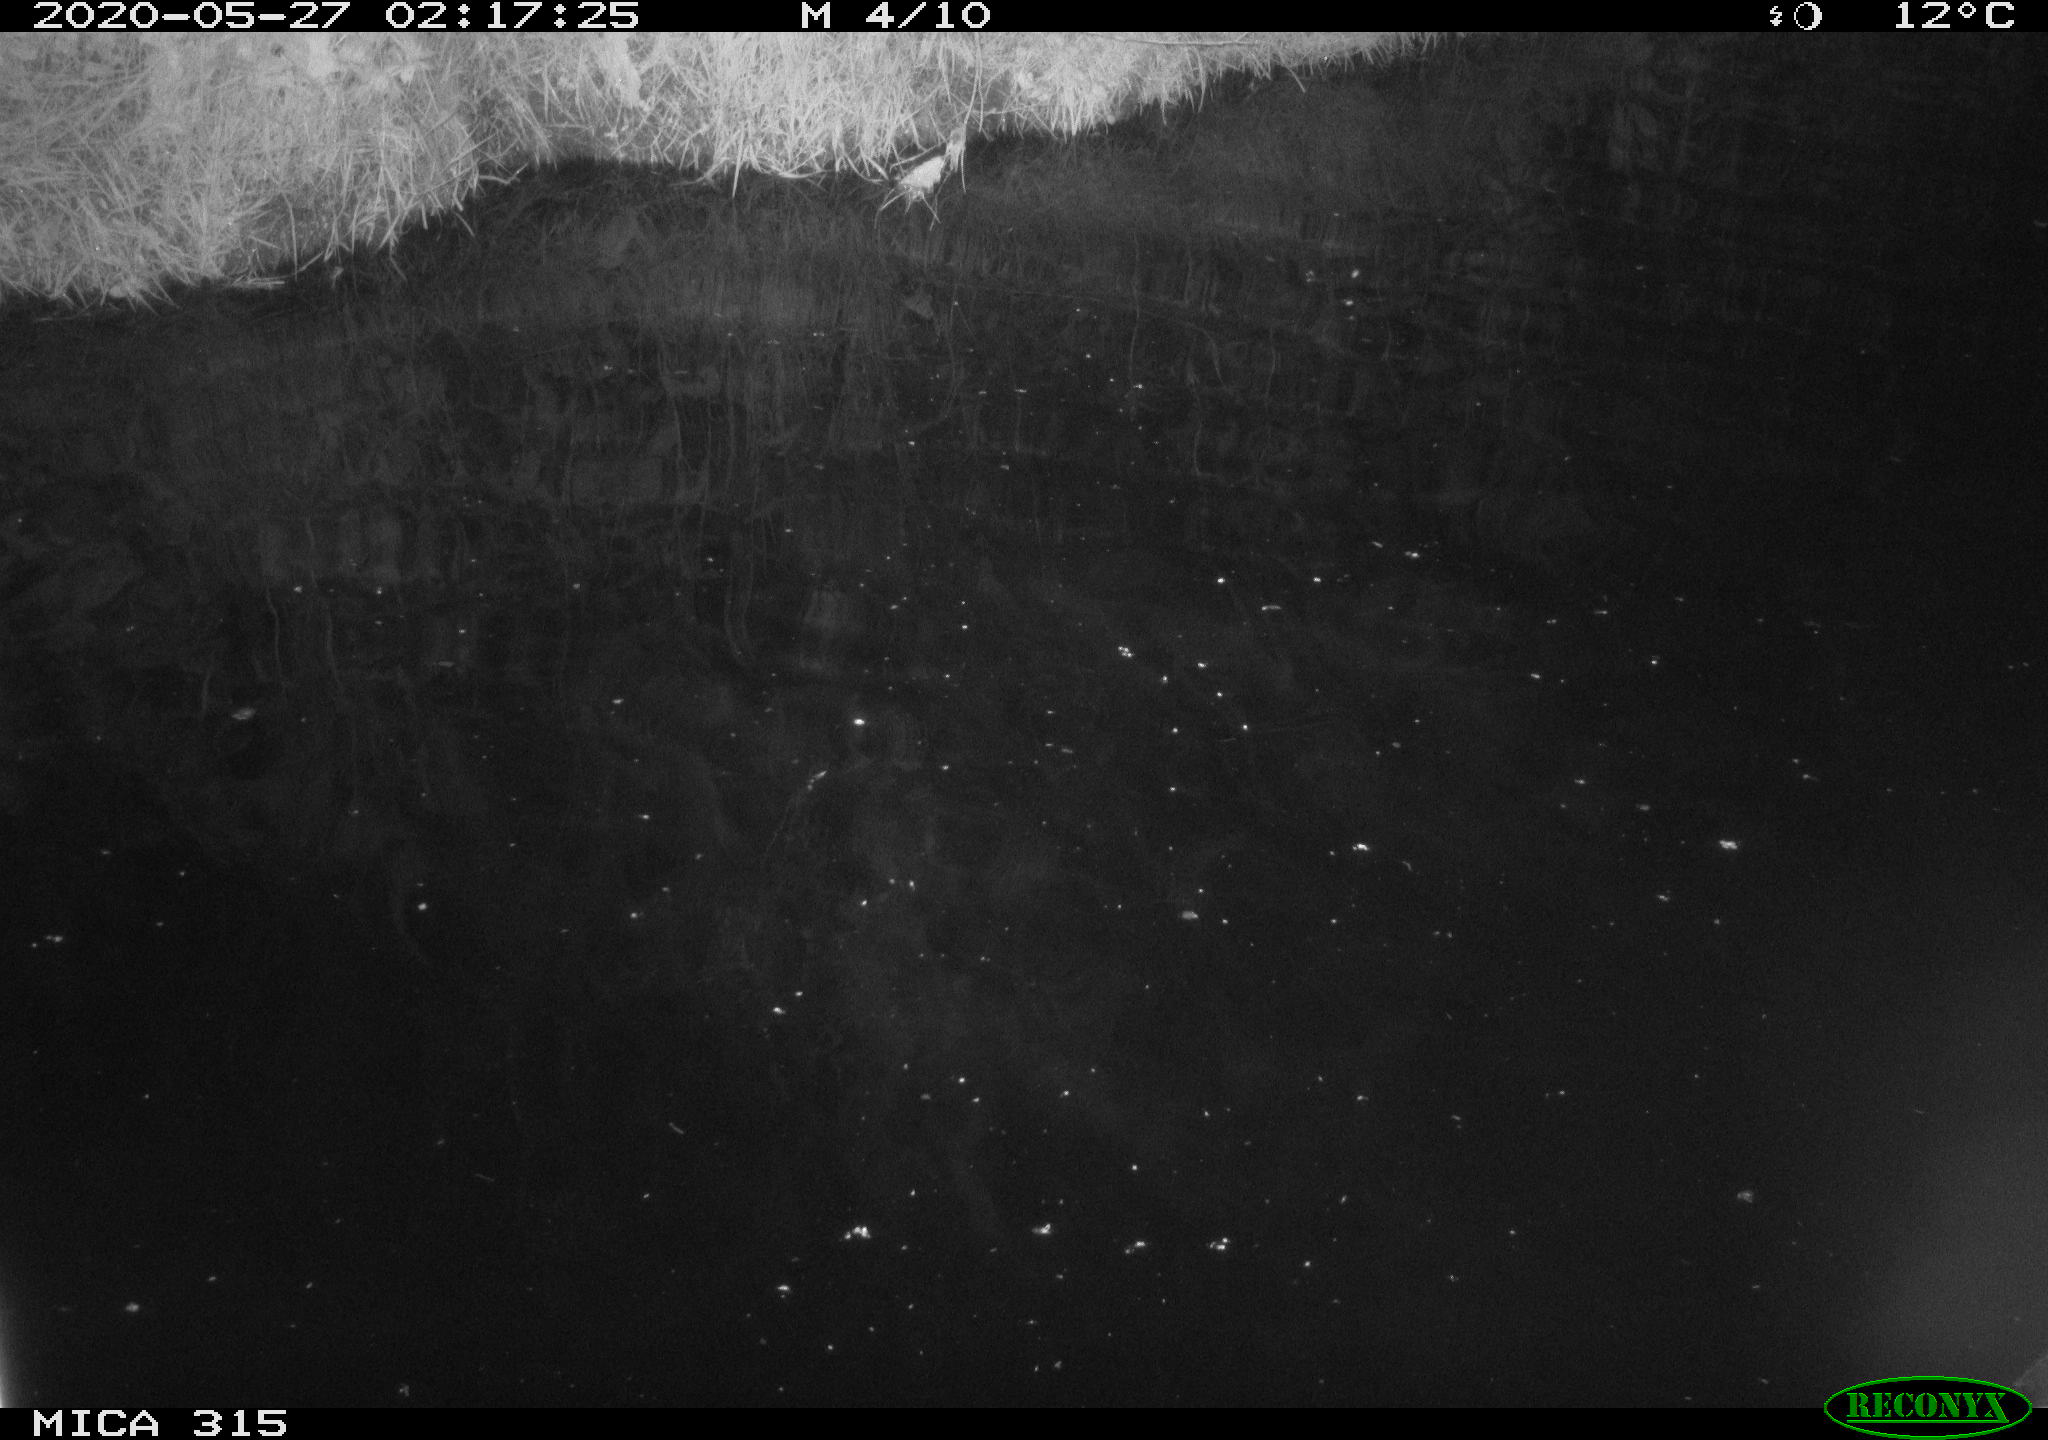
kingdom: Animalia
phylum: Chordata
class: Aves
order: Anseriformes
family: Anatidae
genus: Anas
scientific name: Anas platyrhynchos
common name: Mallard
